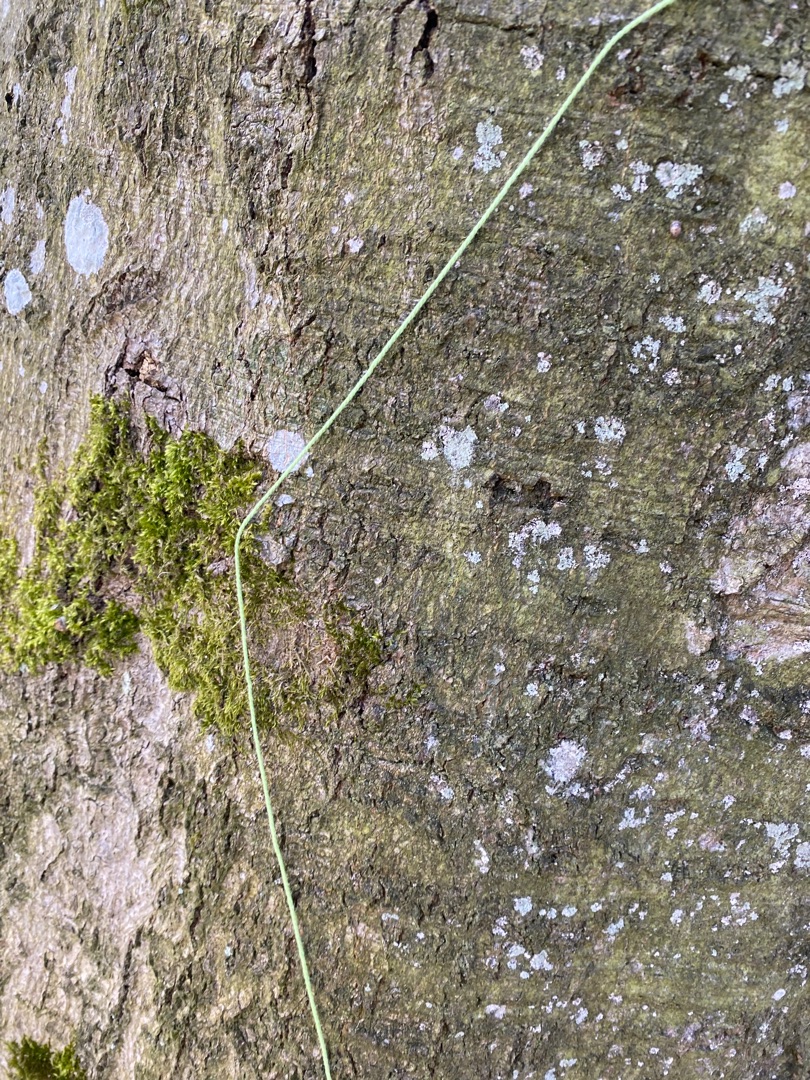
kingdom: Fungi
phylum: Ascomycota
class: Lecanoromycetes
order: Ostropales
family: Phlyctidaceae
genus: Phlyctis
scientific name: Phlyctis argena
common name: Almindelig sølvlav
